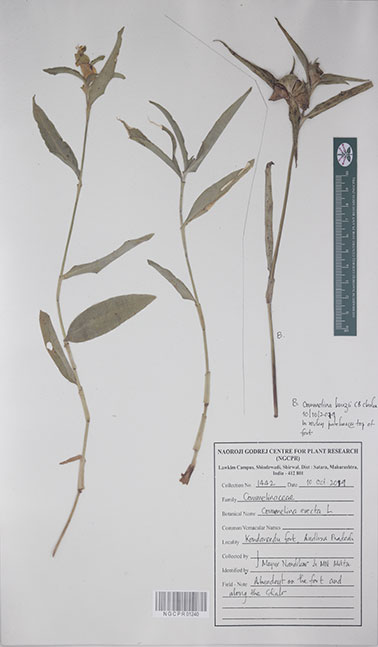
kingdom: Plantae
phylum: Tracheophyta
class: Liliopsida
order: Commelinales
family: Commelinaceae
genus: Commelina
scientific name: Commelina undulata
